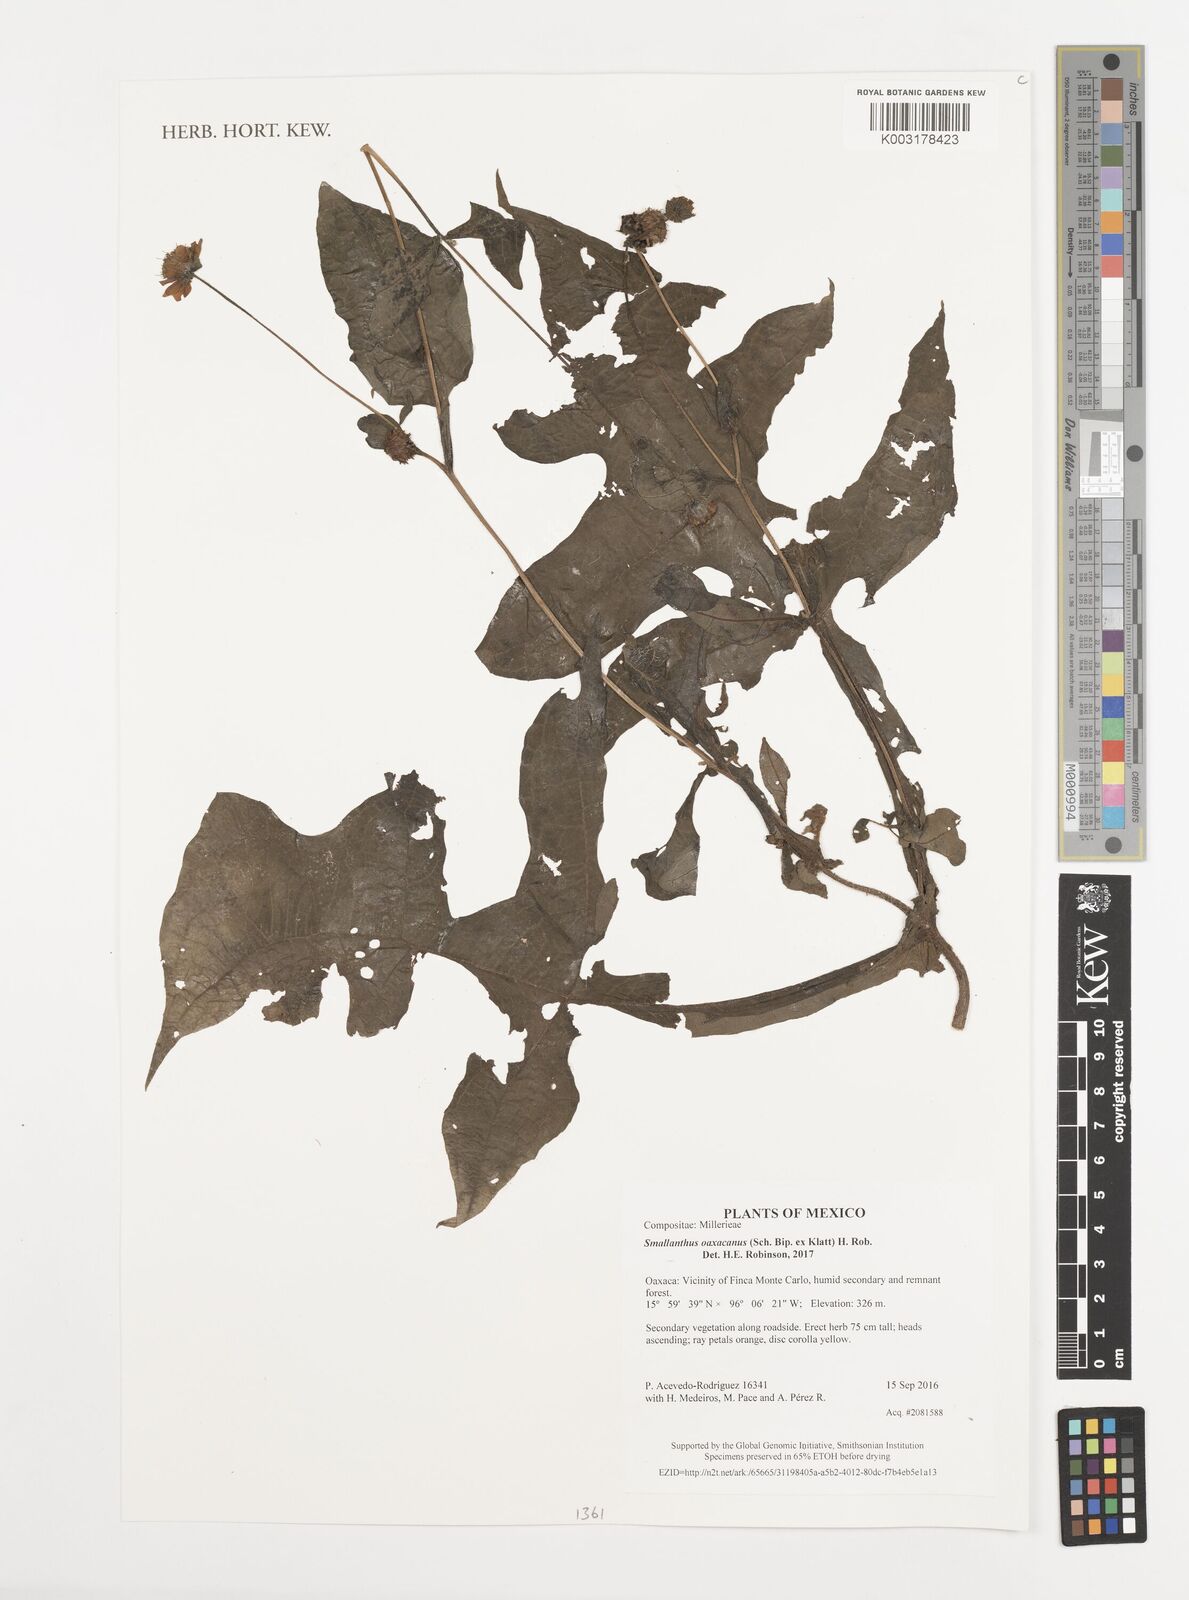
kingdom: Plantae
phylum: Tracheophyta
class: Magnoliopsida
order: Asterales
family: Asteraceae
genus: Smallanthus
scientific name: Smallanthus oaxacanus
